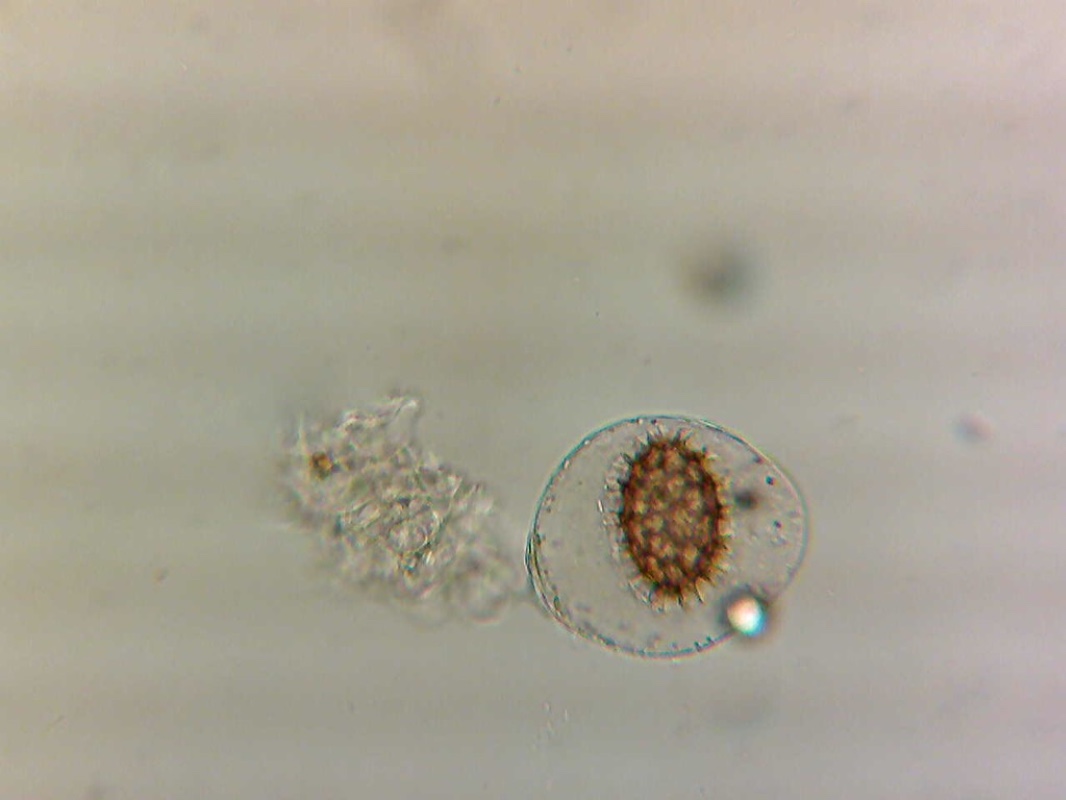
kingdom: Fungi
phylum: Ascomycota
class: Pezizomycetes
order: Pezizales
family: Tuberaceae
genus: Tuber
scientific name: Tuber borchii
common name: Borchs trøffel
